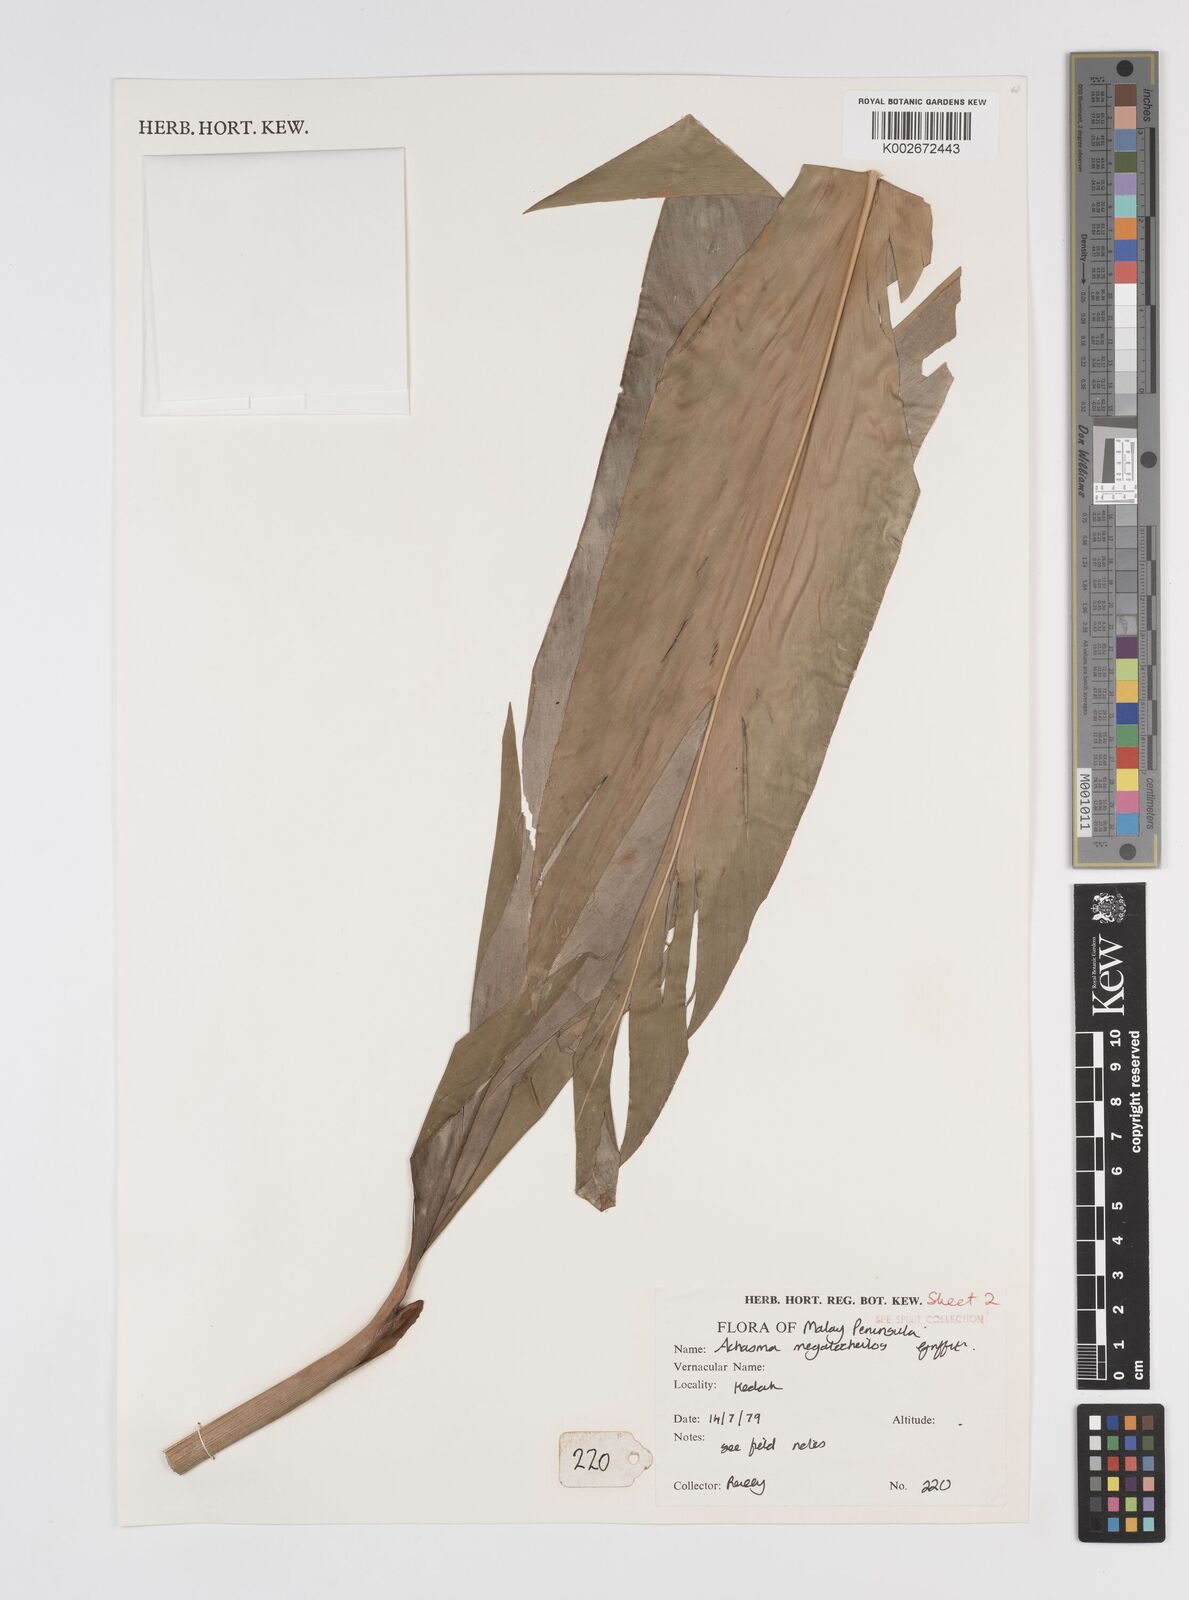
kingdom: Plantae
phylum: Tracheophyta
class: Liliopsida
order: Zingiberales
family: Zingiberaceae
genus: Etlingera
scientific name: Etlingera littoralis
